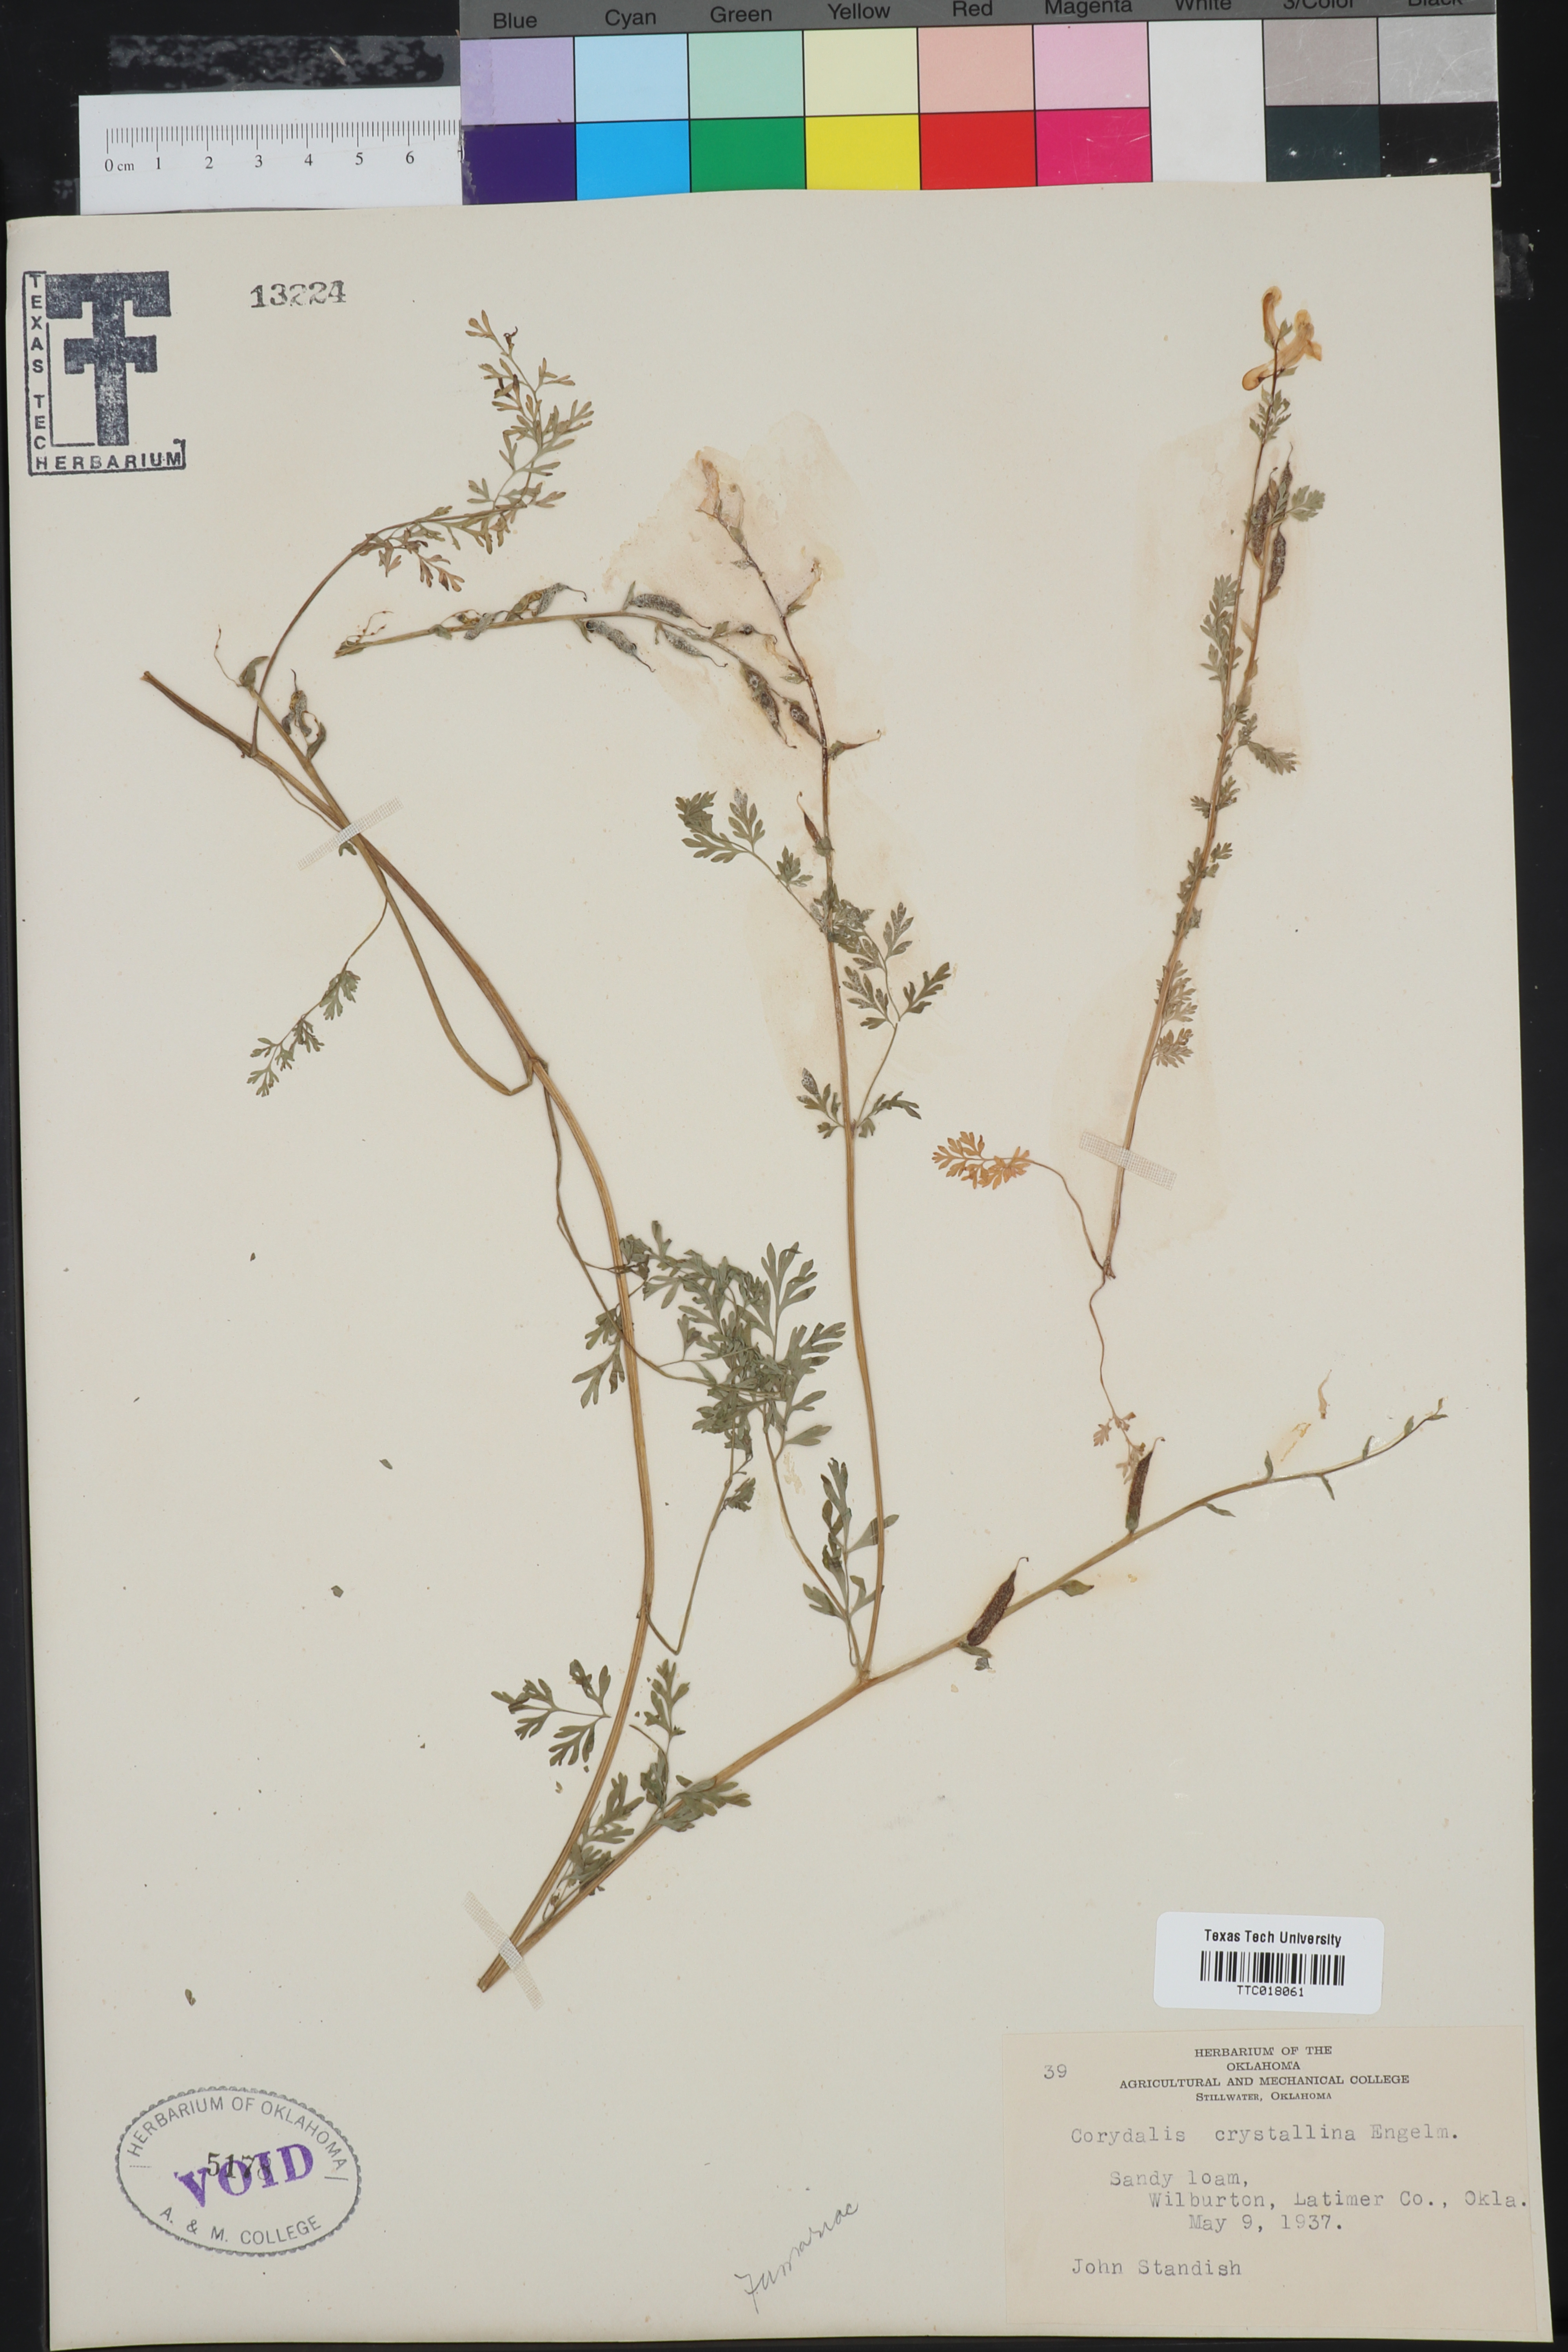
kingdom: Plantae
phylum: Tracheophyta
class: Magnoliopsida
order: Ranunculales
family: Papaveraceae
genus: Corydalis
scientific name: Corydalis crystallina
